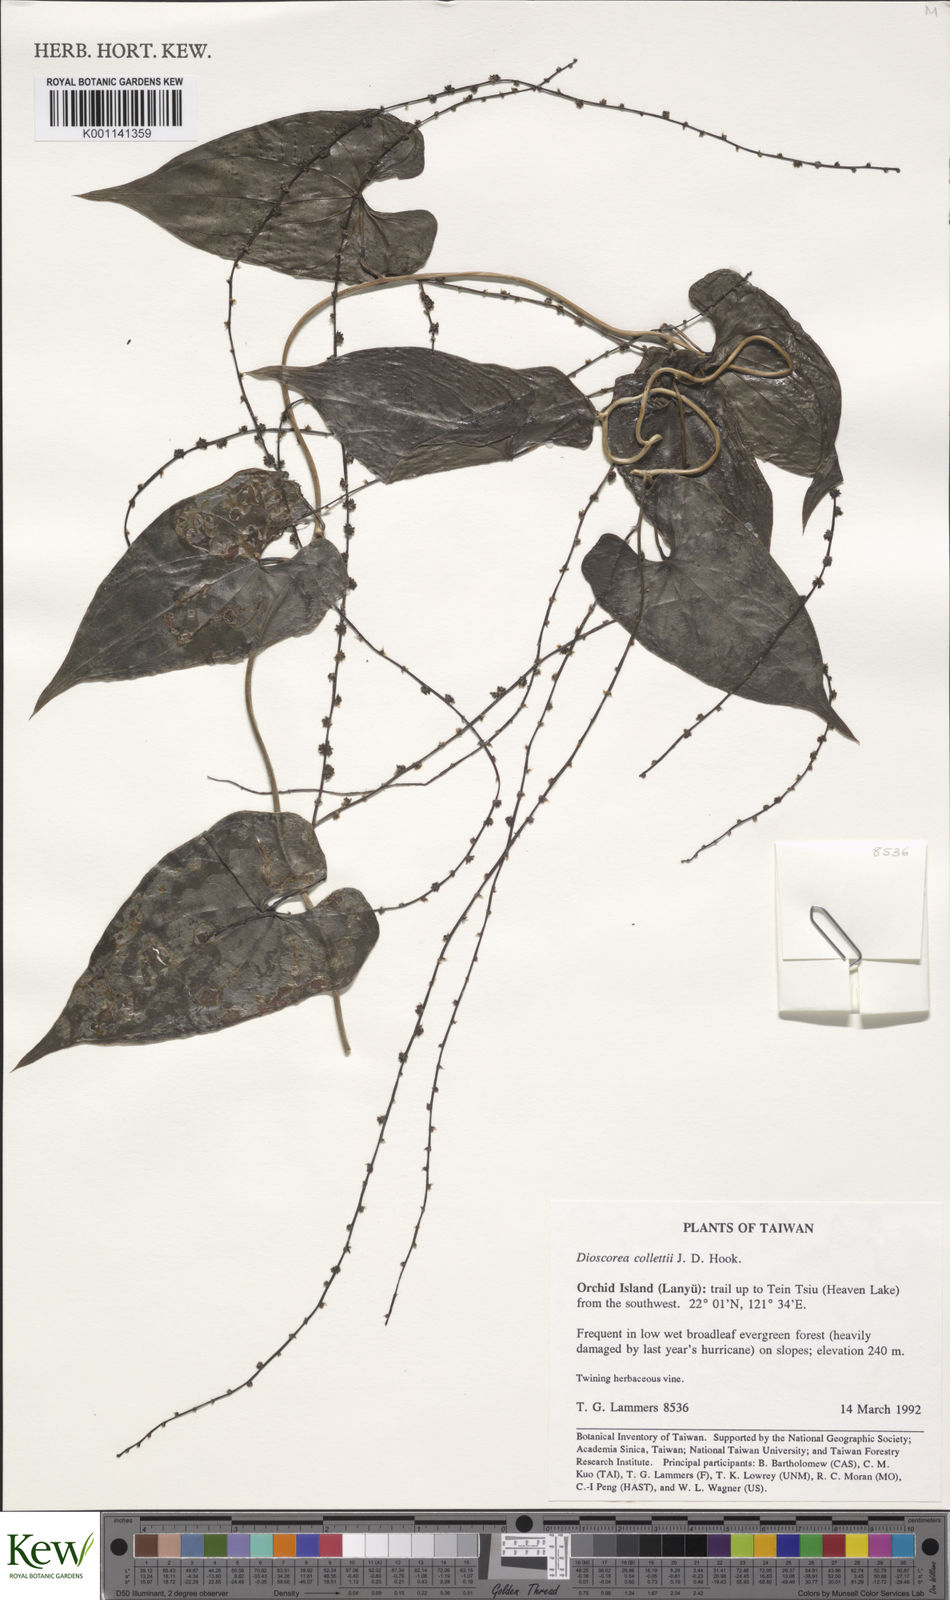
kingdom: Plantae
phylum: Tracheophyta
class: Liliopsida
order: Dioscoreales
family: Dioscoreaceae
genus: Dioscorea
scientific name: Dioscorea collettii
